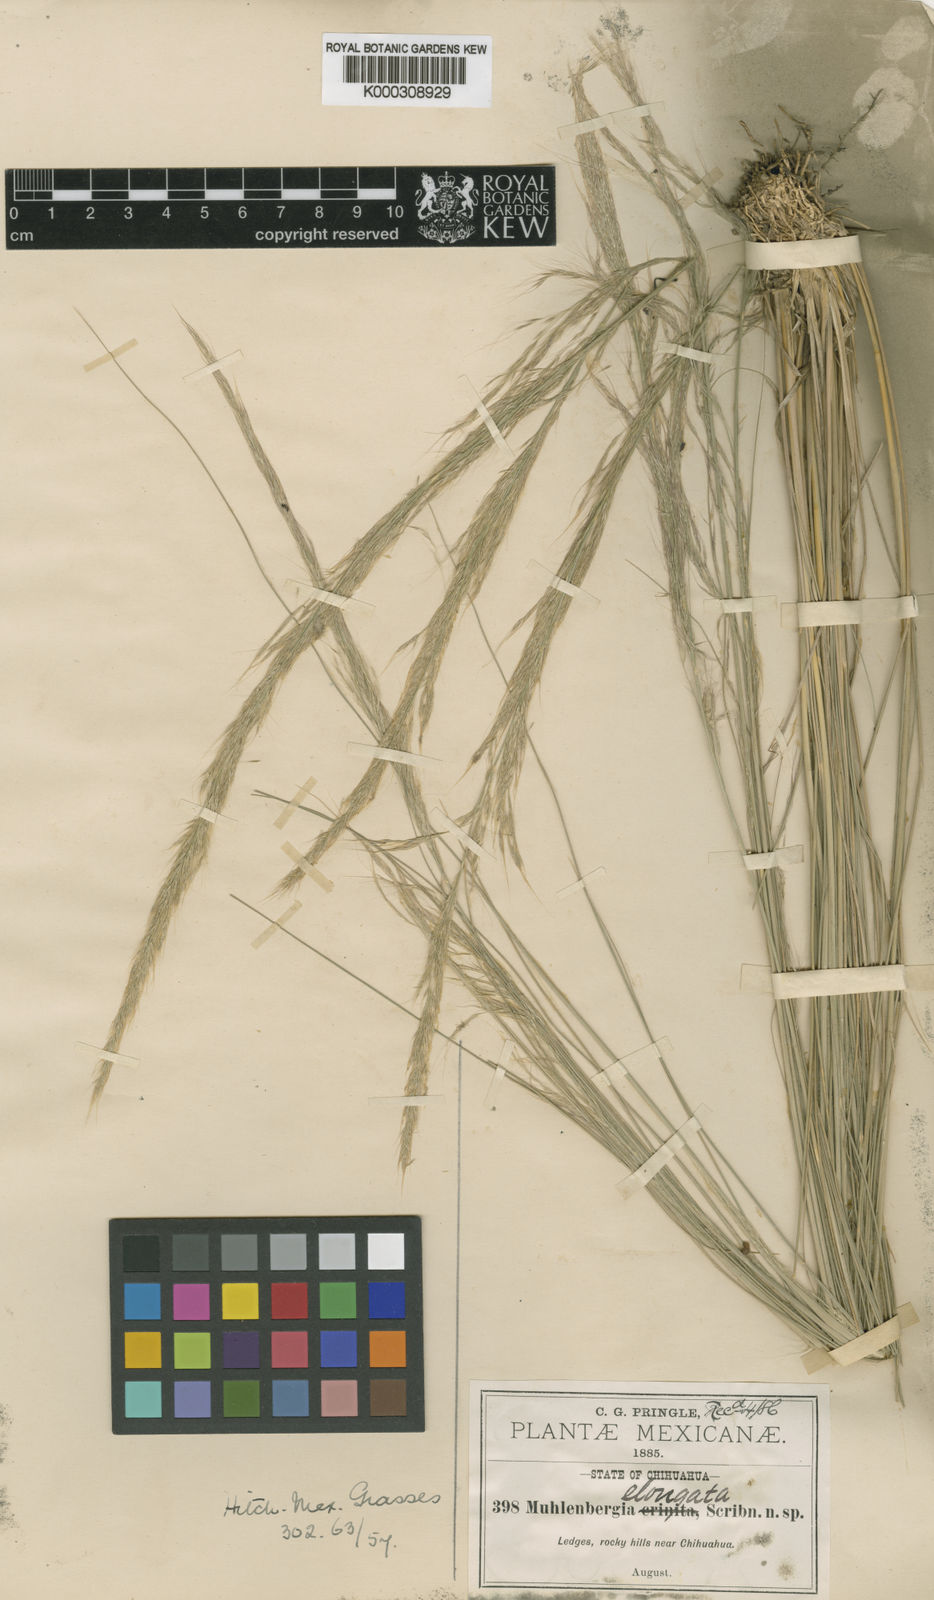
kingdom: Plantae
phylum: Tracheophyta
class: Liliopsida
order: Poales
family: Poaceae
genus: Muhlenbergia
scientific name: Muhlenbergia
